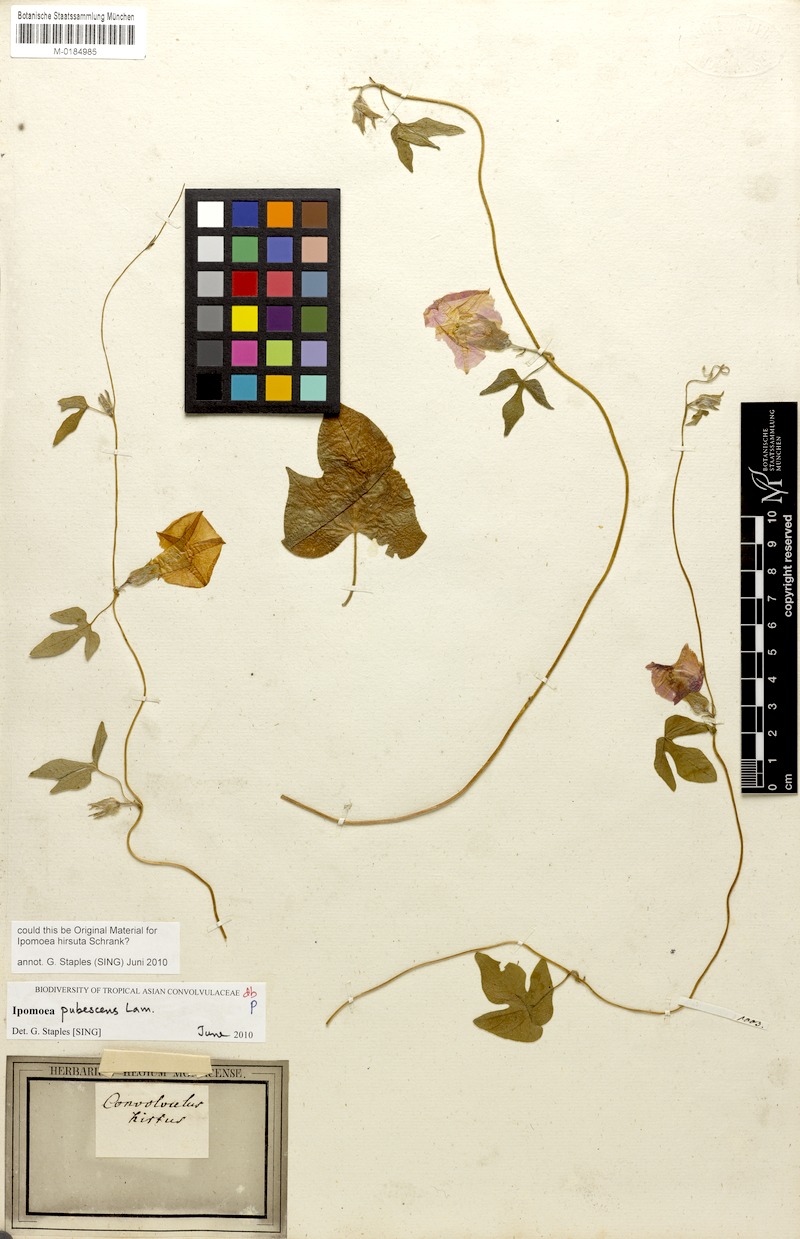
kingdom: Plantae
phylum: Tracheophyta
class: Magnoliopsida
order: Solanales
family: Convolvulaceae
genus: Ipomoea
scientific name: Ipomoea pubescens
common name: Silky morning-glory
